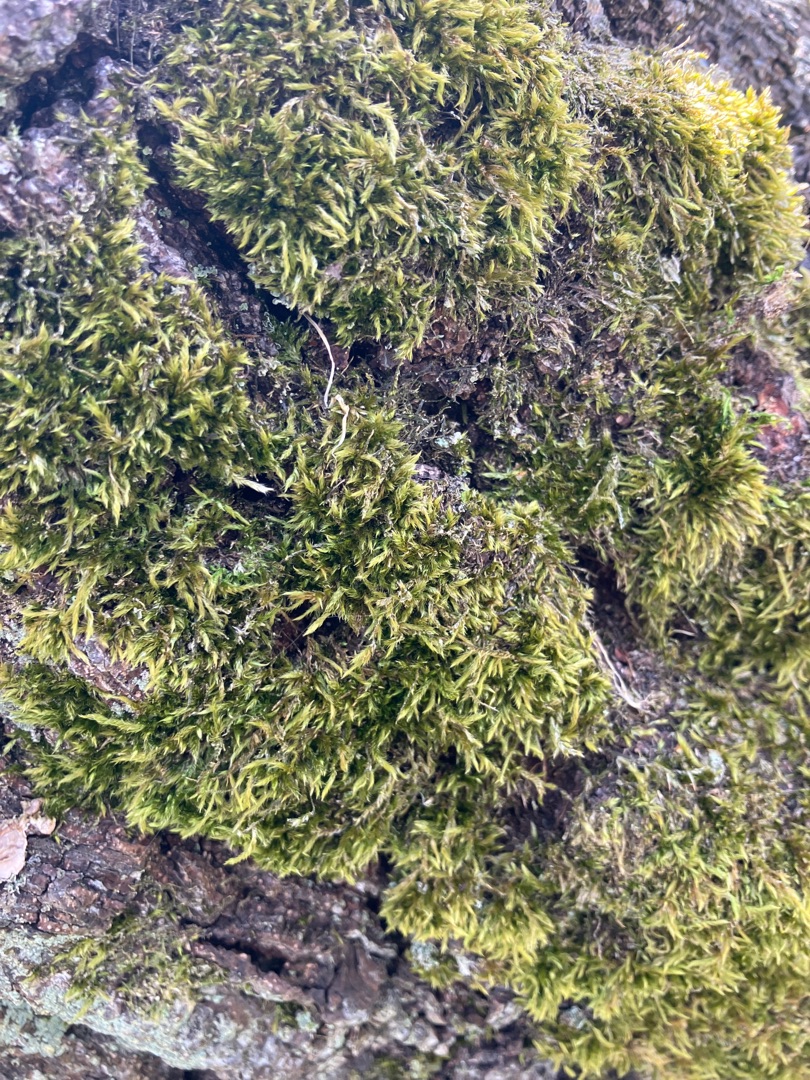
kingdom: Plantae
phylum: Bryophyta
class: Bryopsida
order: Hypnales
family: Hypnaceae
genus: Hypnum
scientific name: Hypnum
